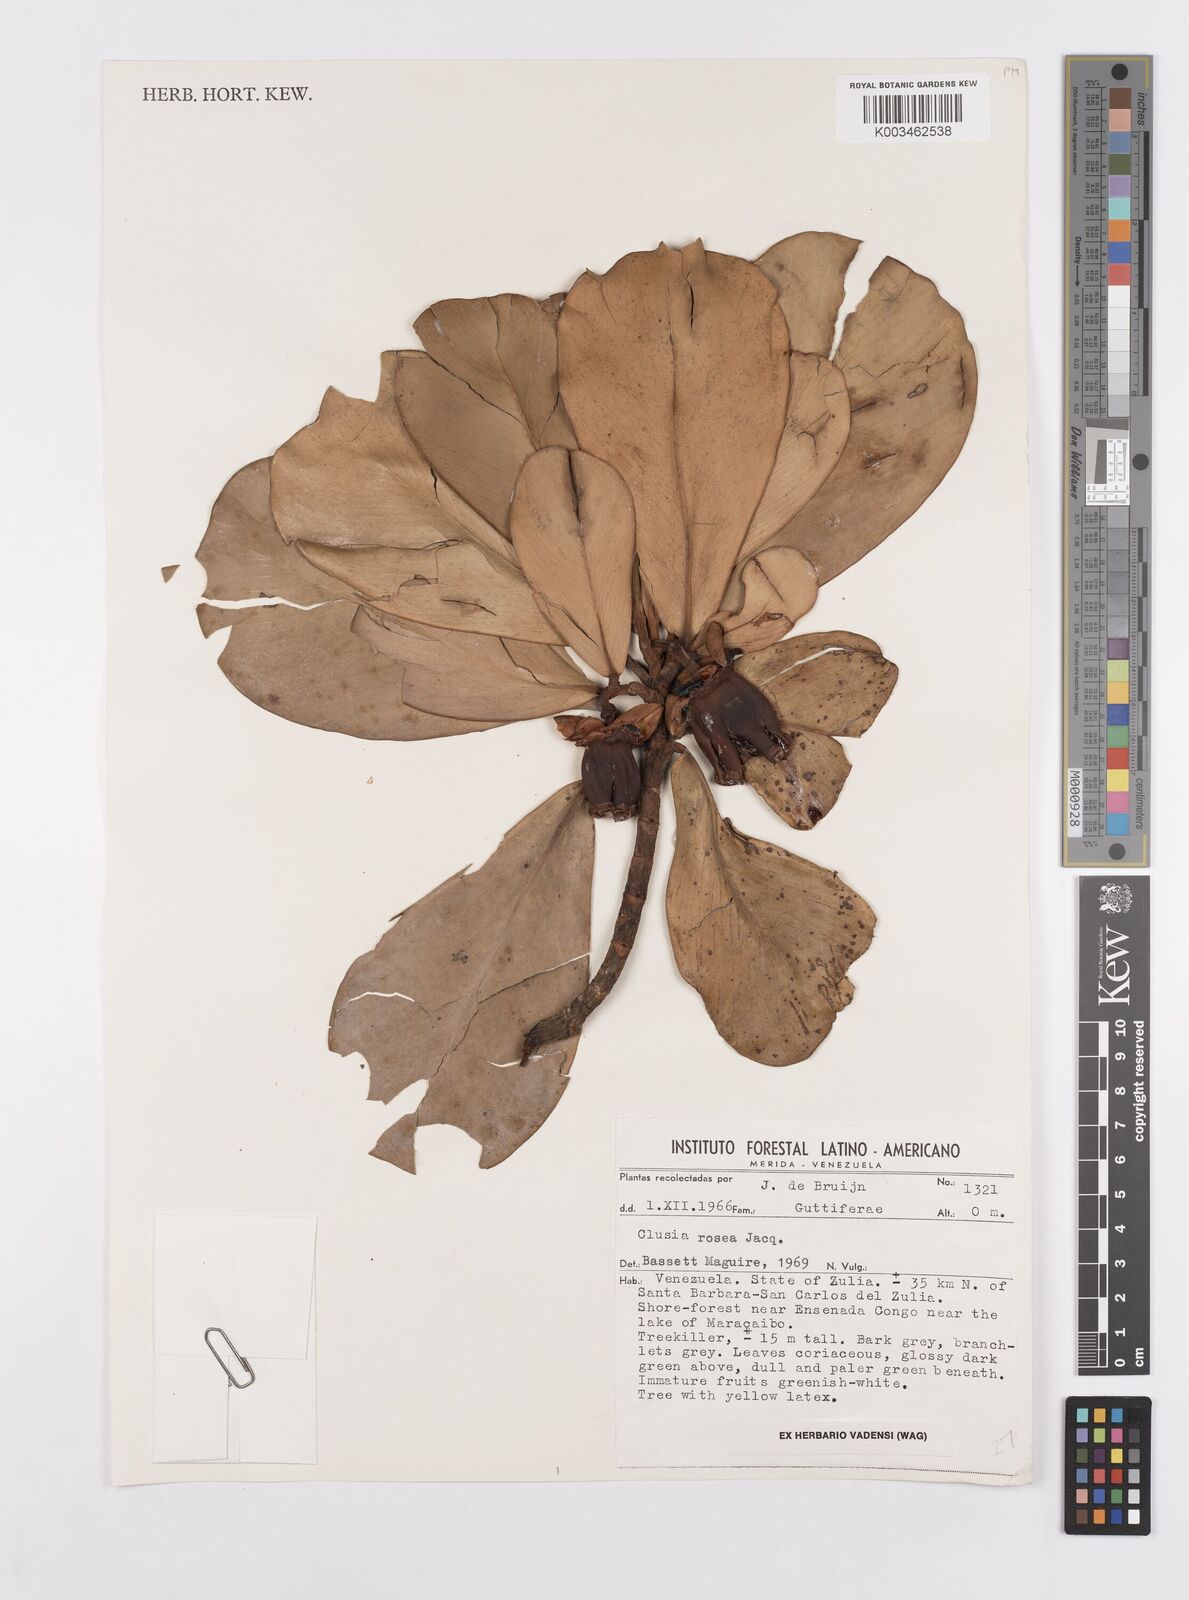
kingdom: Plantae
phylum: Tracheophyta
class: Magnoliopsida
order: Malpighiales
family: Clusiaceae
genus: Clusia
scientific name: Clusia rosea
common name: Scotch attorney
